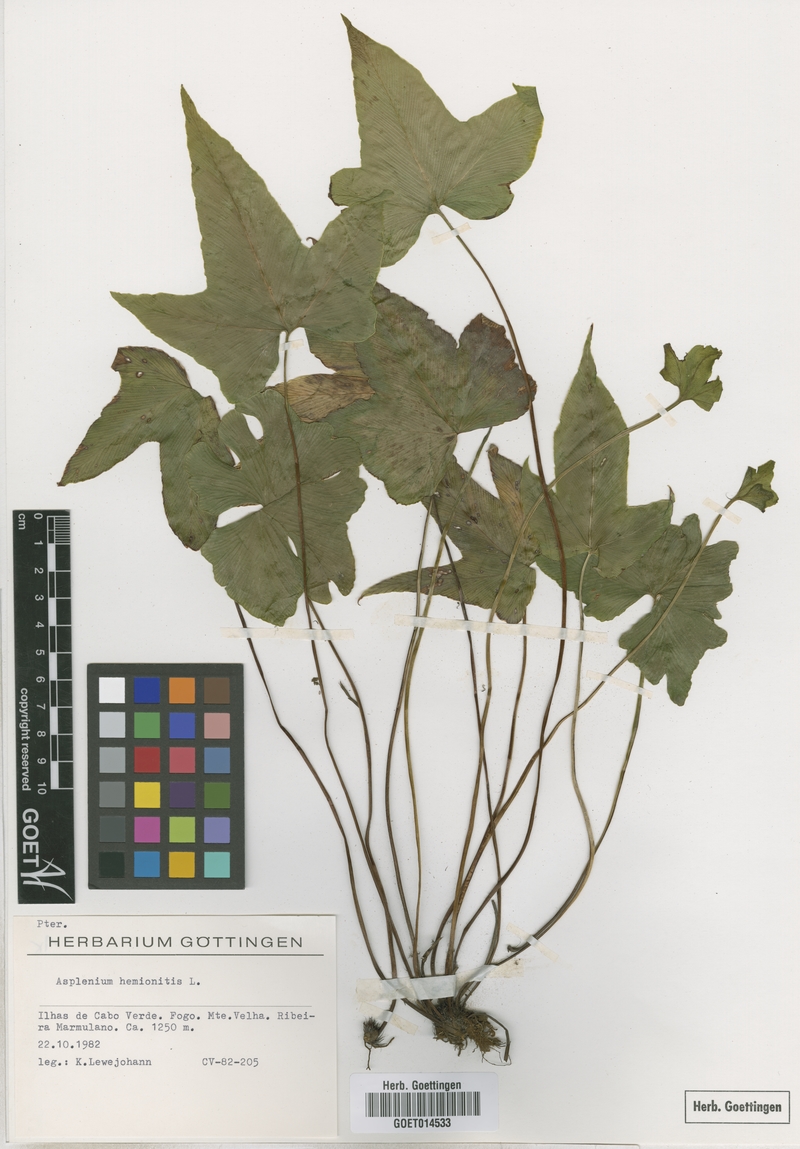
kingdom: Plantae
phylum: Tracheophyta
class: Polypodiopsida
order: Polypodiales
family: Aspleniaceae
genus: Asplenium
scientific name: Asplenium hemionitis
